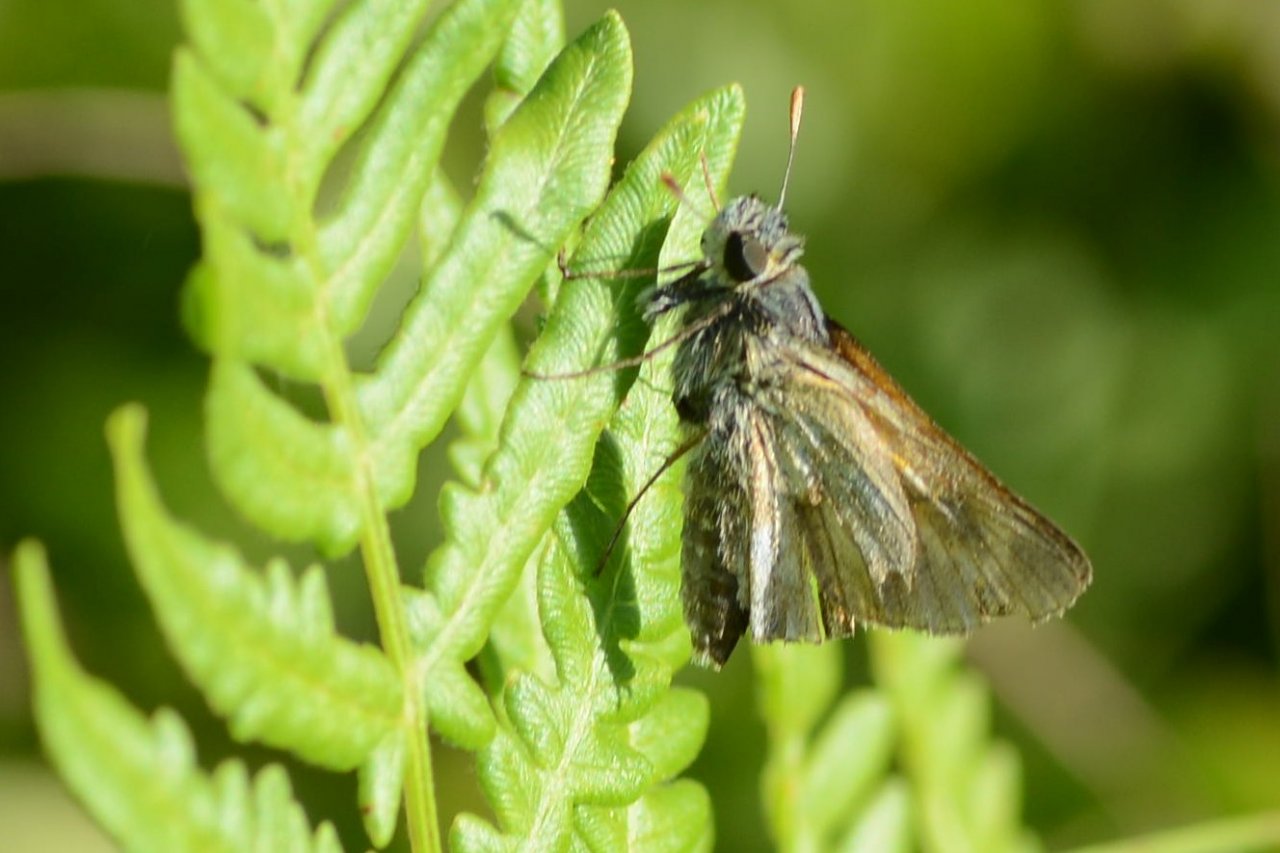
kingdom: Animalia
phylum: Arthropoda
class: Insecta
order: Lepidoptera
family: Hesperiidae
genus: Polites
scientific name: Polites
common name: Long Dash Skipper
